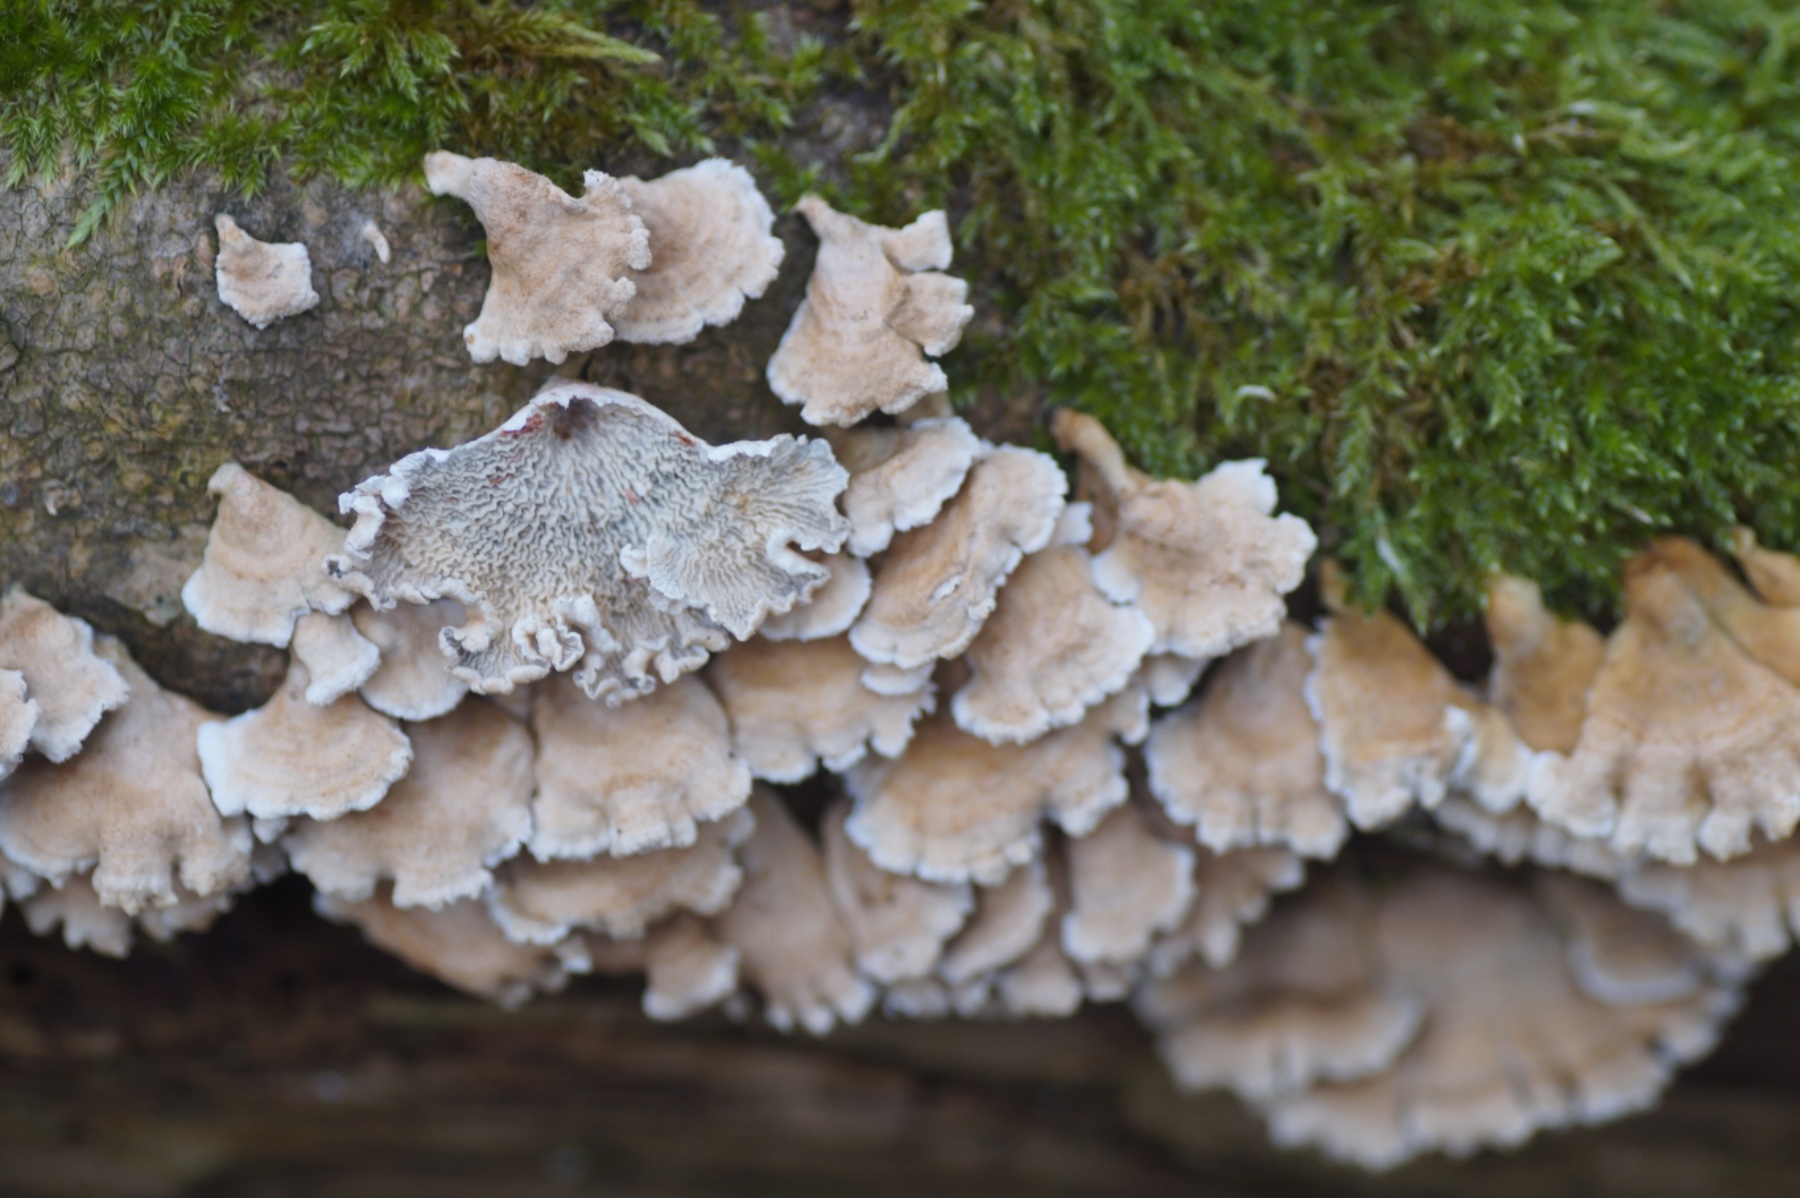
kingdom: Fungi
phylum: Basidiomycota
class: Agaricomycetes
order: Amylocorticiales
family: Amylocorticiaceae
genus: Plicaturopsis
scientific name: Plicaturopsis crispa
